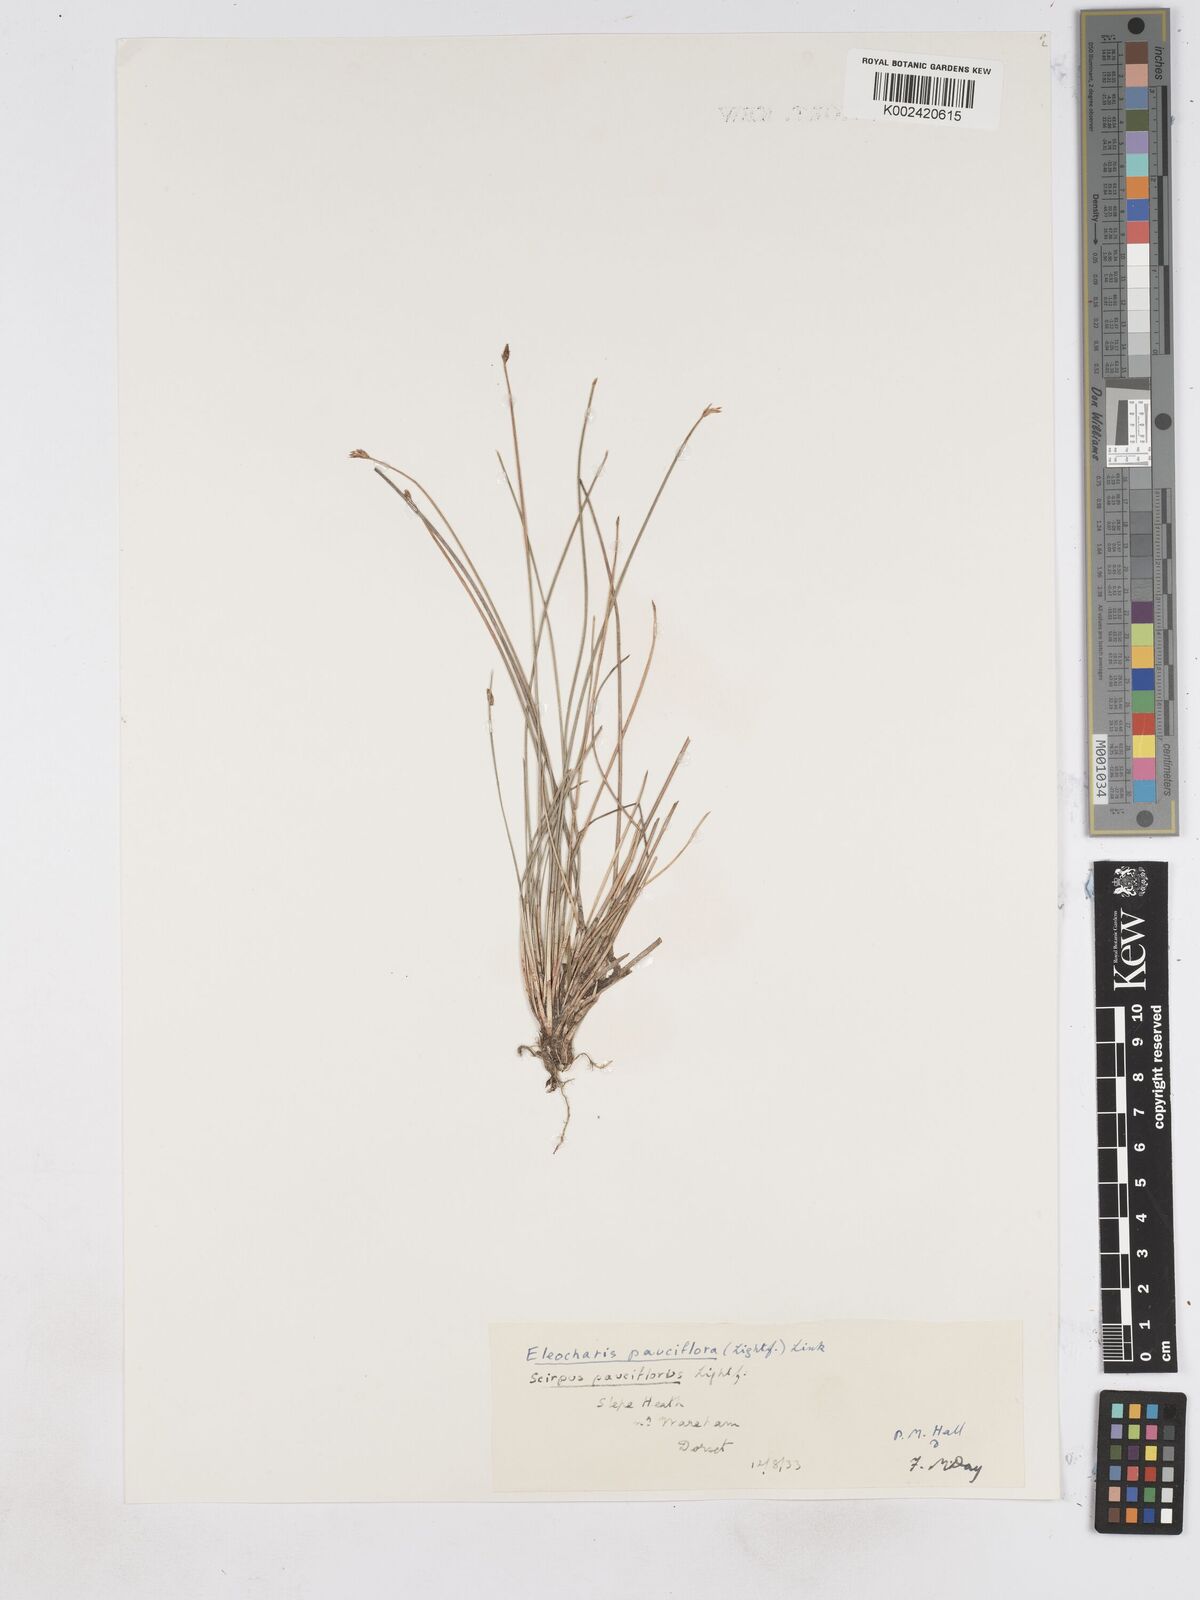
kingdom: Plantae
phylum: Tracheophyta
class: Liliopsida
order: Poales
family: Cyperaceae
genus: Eleocharis
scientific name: Eleocharis quinqueflora
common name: Few-flowered spike-rush
